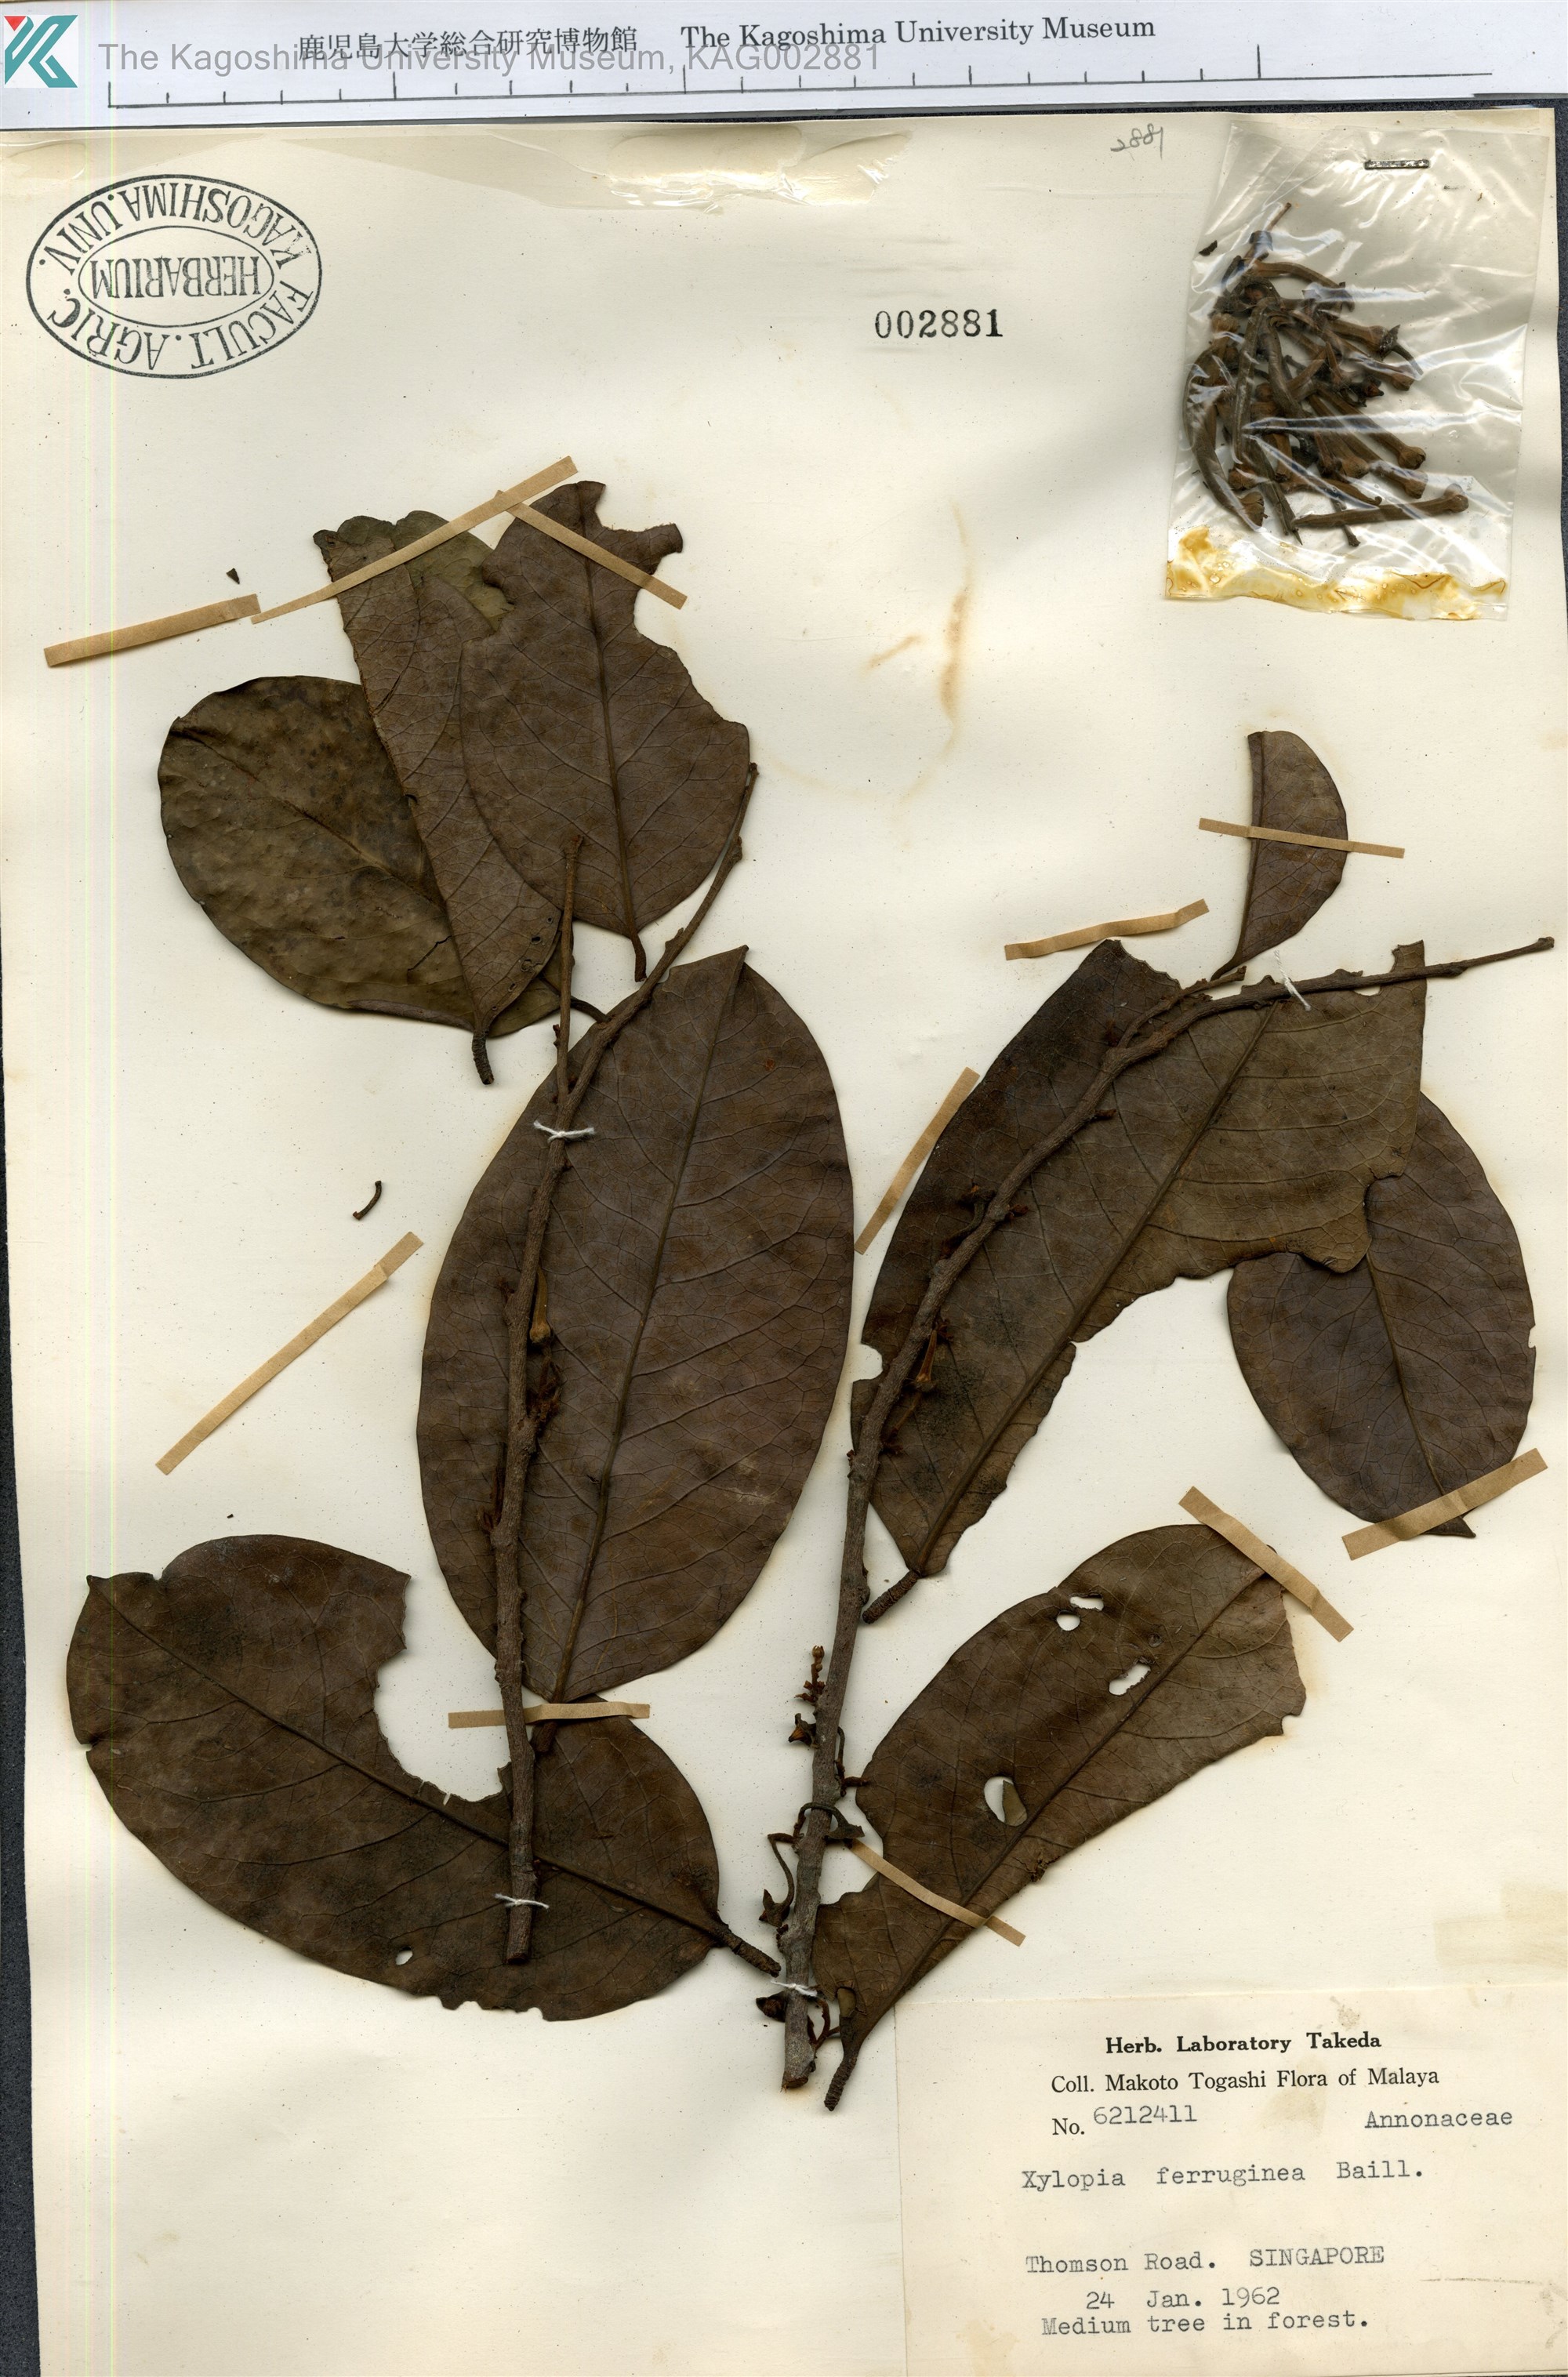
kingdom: Plantae
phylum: Tracheophyta
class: Magnoliopsida
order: Magnoliales
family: Annonaceae
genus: Xylopia
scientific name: Xylopia ferruginea
